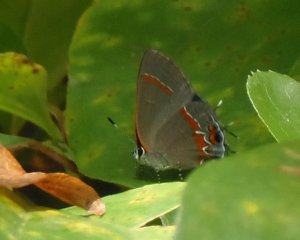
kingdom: Animalia
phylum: Arthropoda
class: Insecta
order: Lepidoptera
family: Lycaenidae
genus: Calycopis
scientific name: Calycopis cecrops
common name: Red-banded Hairstreak
